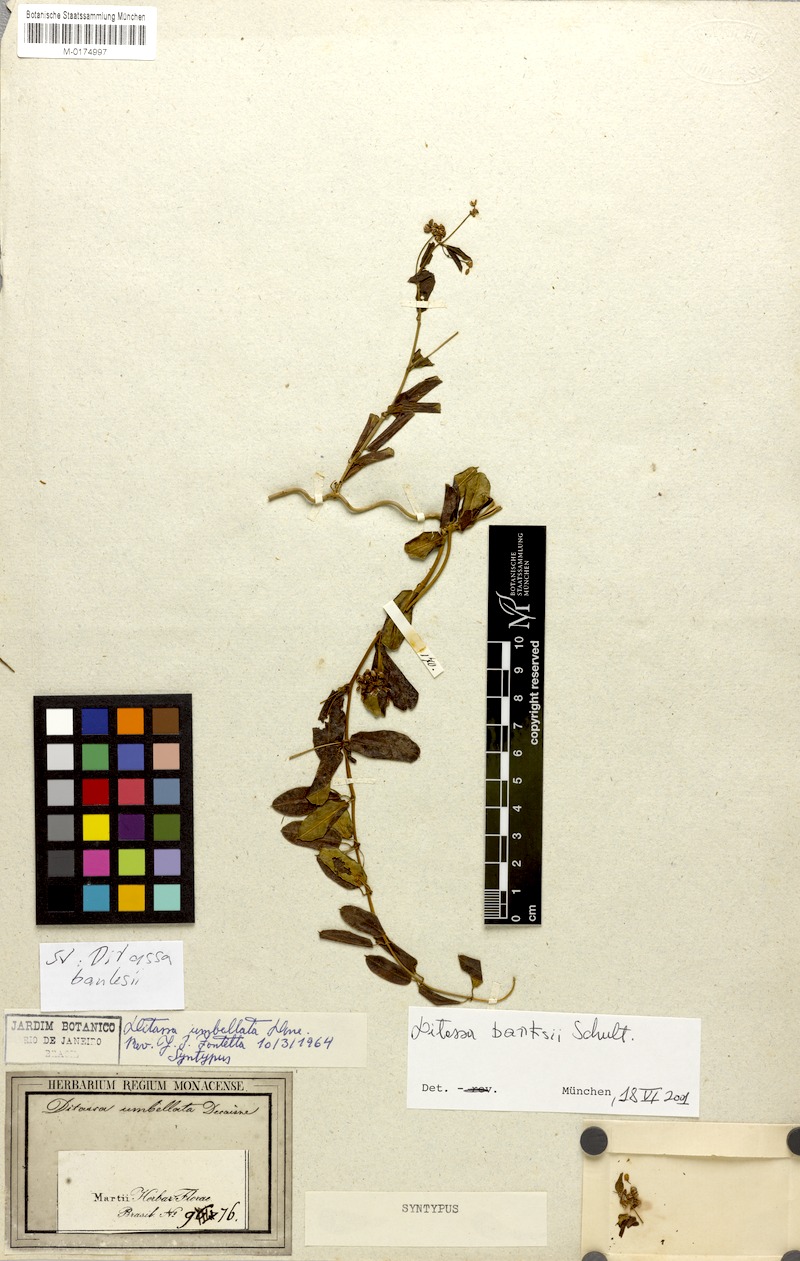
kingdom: Plantae
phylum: Tracheophyta
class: Magnoliopsida
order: Gentianales
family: Apocynaceae
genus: Ditassa
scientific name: Ditassa banksii
